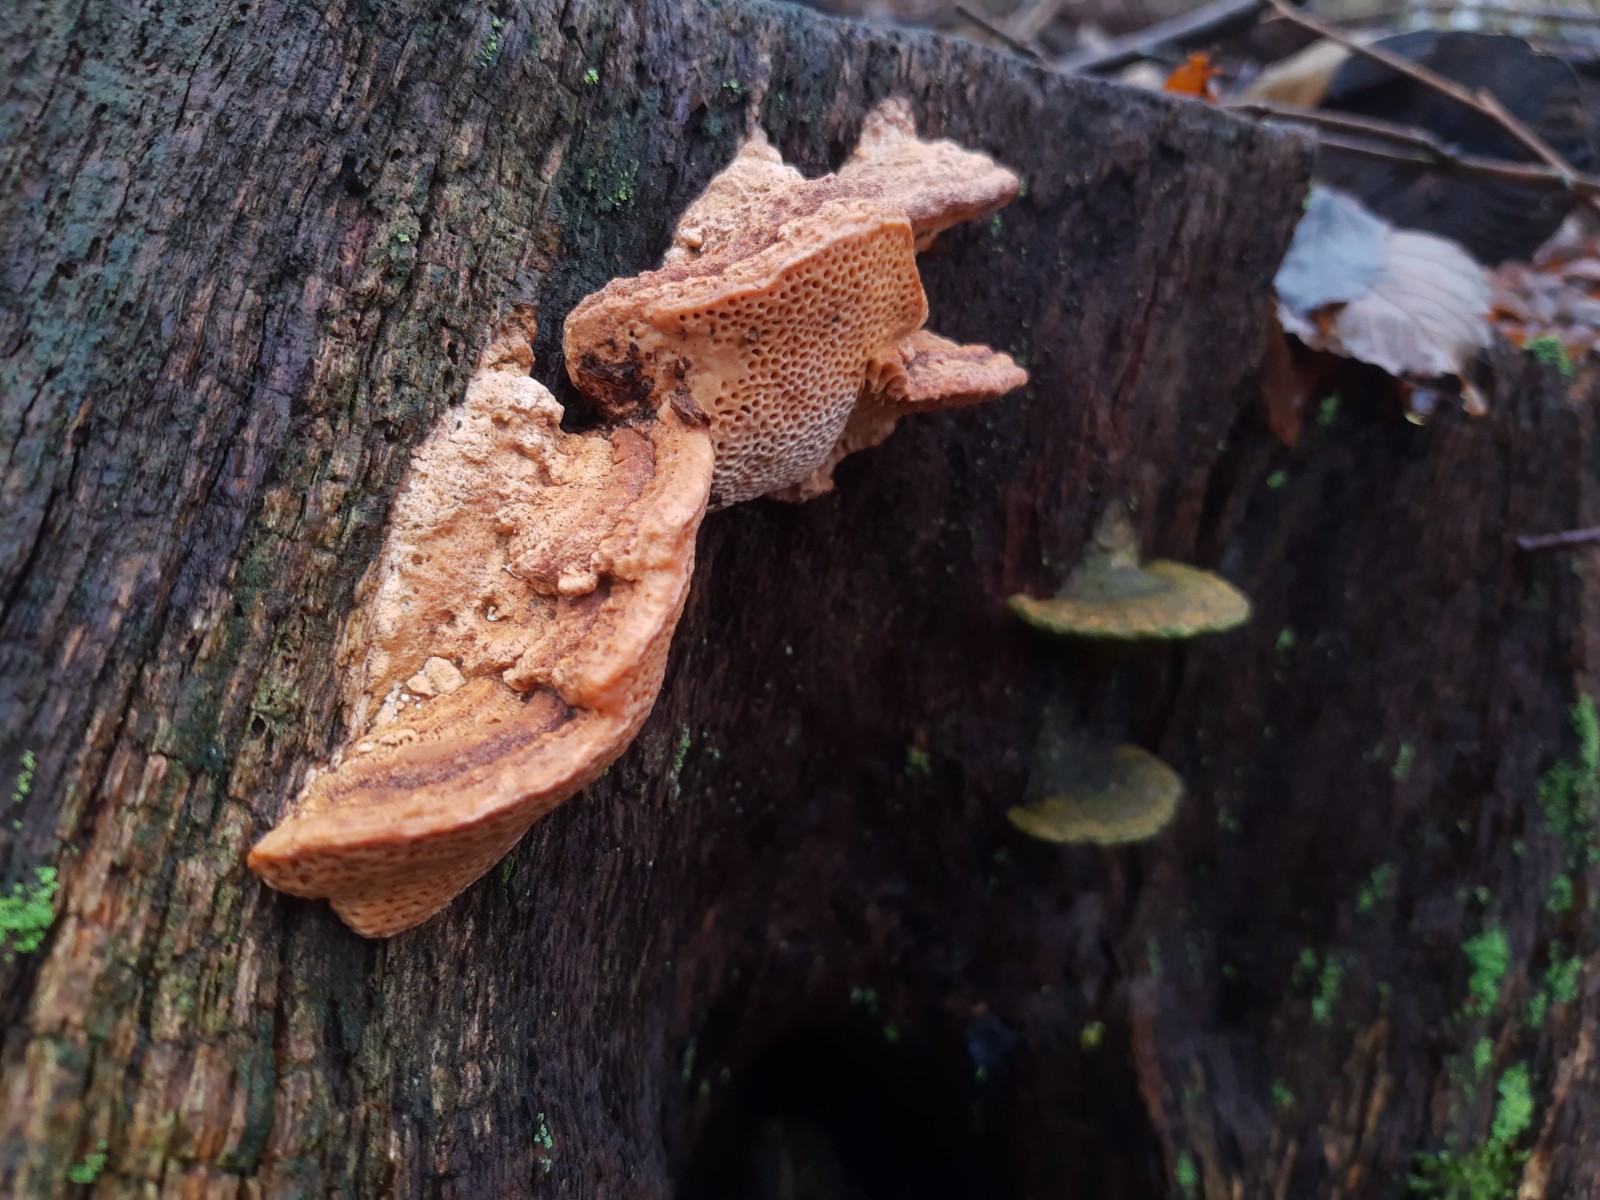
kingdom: Fungi
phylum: Basidiomycota
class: Agaricomycetes
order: Polyporales
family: Fomitopsidaceae
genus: Daedalea
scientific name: Daedalea quercina
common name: ege-labyrintsvamp
